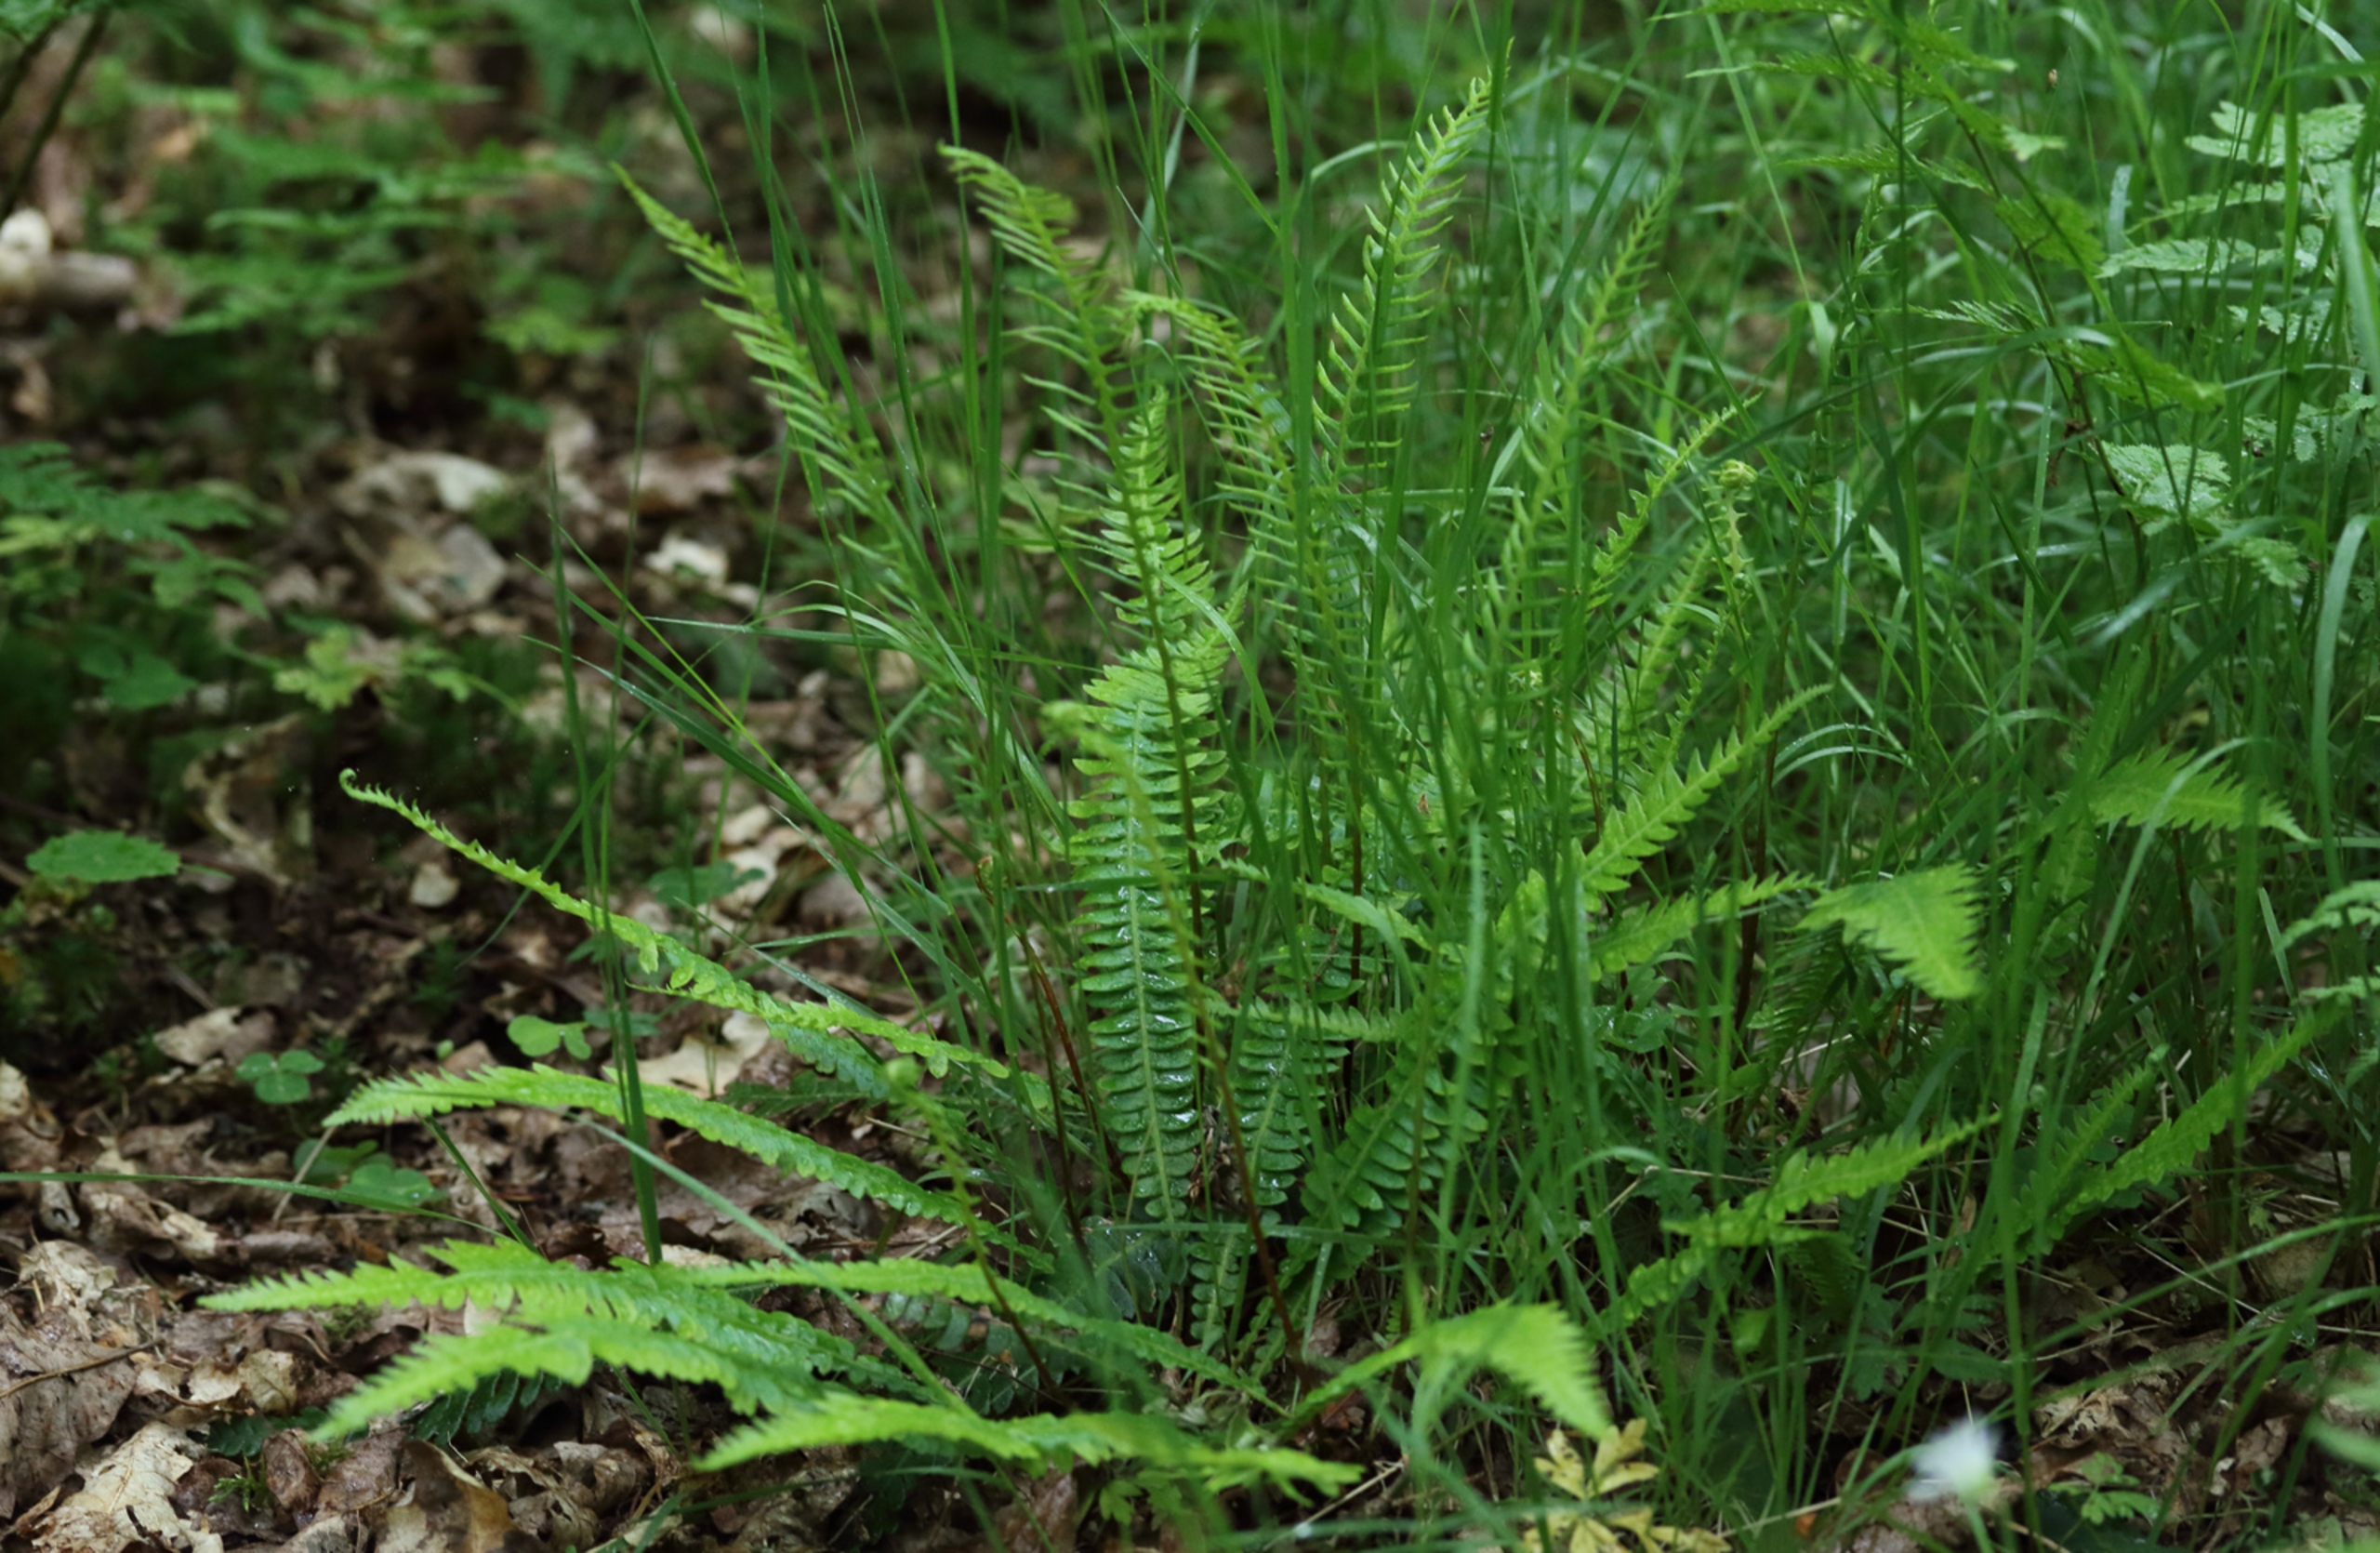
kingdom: Plantae
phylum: Tracheophyta
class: Polypodiopsida
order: Polypodiales
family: Blechnaceae
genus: Struthiopteris
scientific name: Struthiopteris spicant
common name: Kambregne
